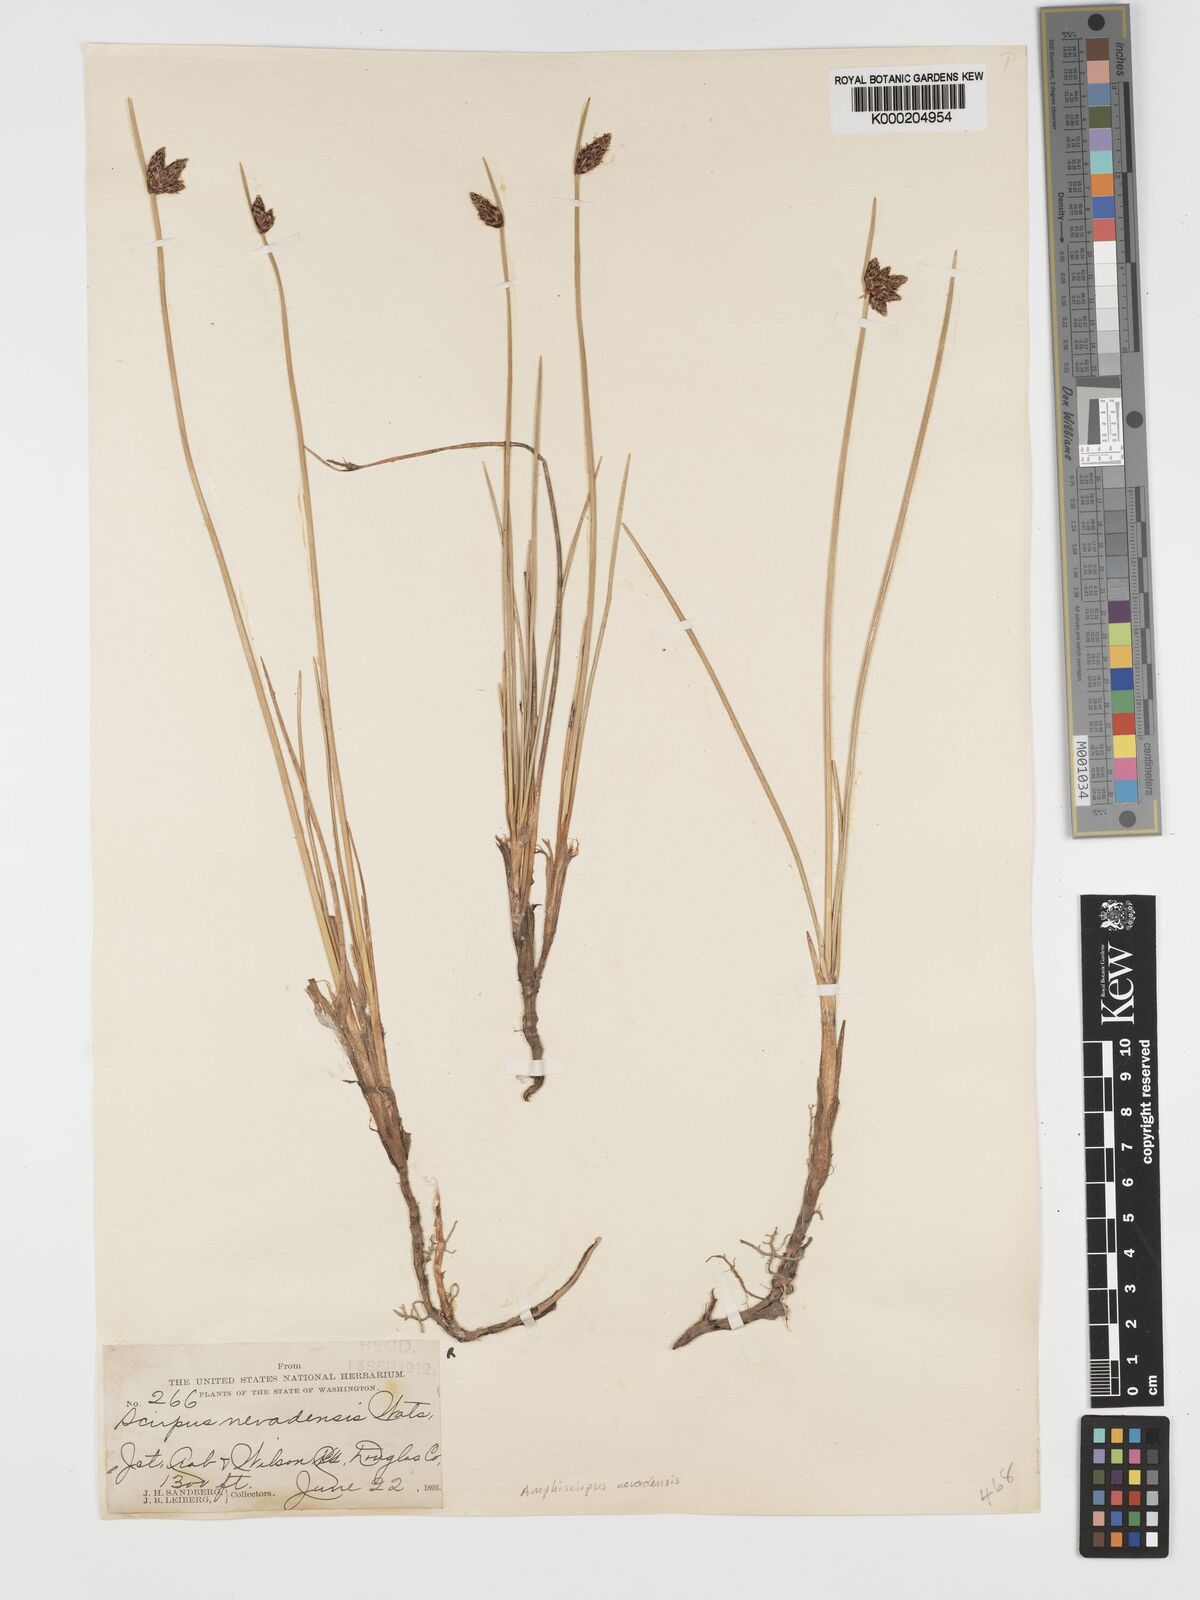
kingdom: Plantae
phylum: Tracheophyta
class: Liliopsida
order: Poales
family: Cyperaceae
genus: Amphiscirpus
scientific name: Amphiscirpus nevadensis
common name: Nevada bulrush
